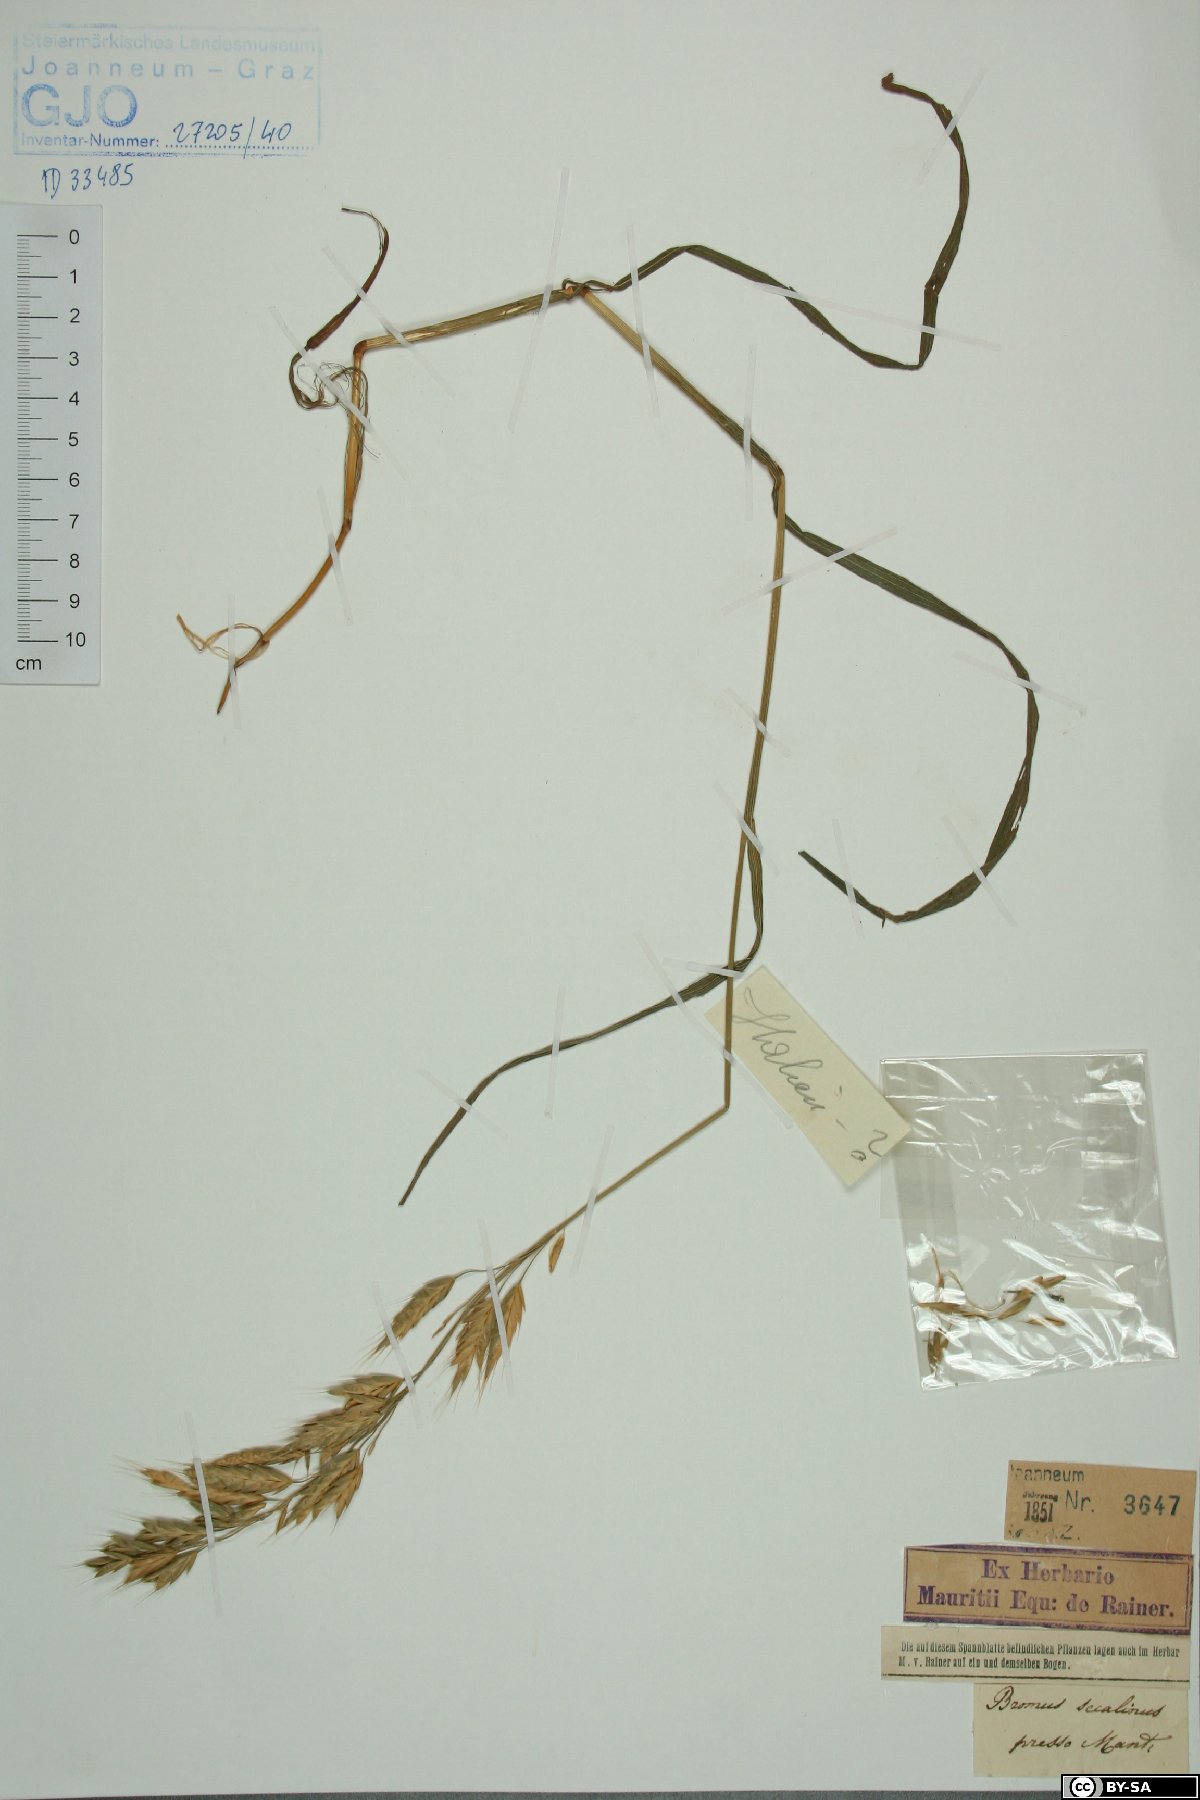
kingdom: Plantae
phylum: Tracheophyta
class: Liliopsida
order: Poales
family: Poaceae
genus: Bromus
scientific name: Bromus secalinus
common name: Rye brome
